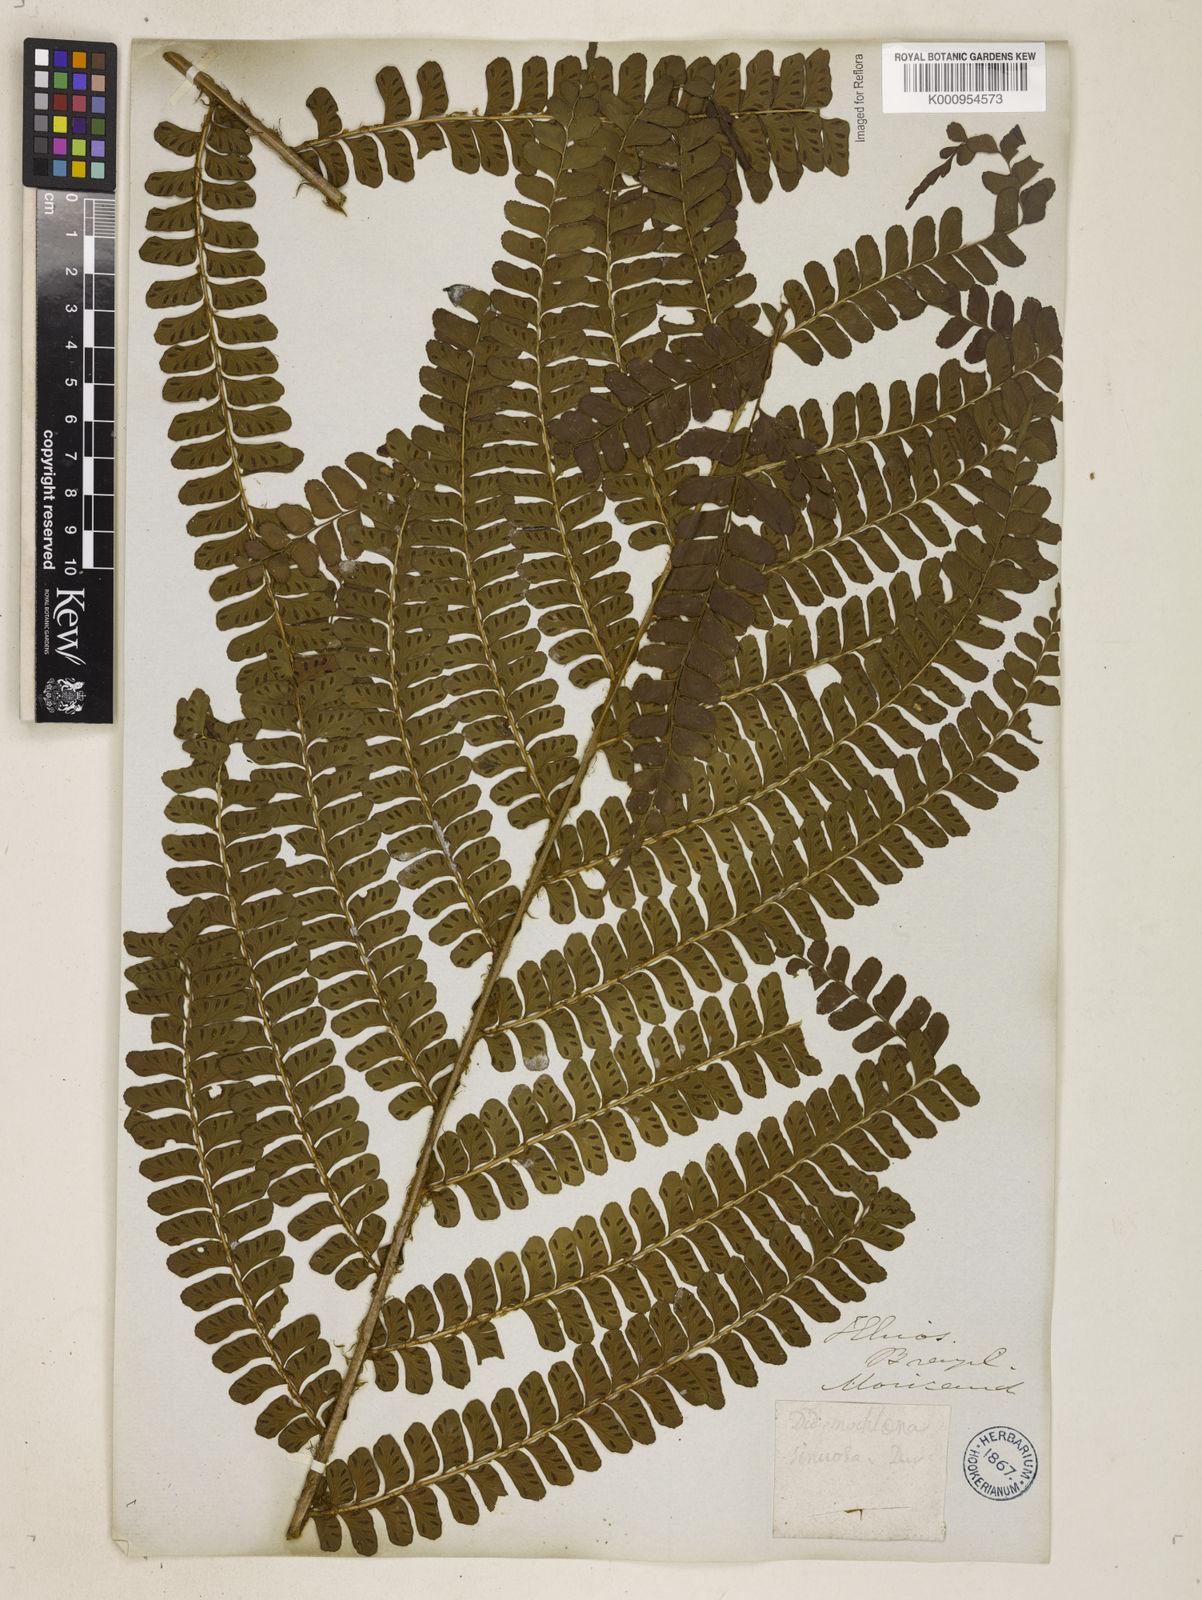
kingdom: Plantae
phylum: Tracheophyta
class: Polypodiopsida
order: Polypodiales
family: Didymochlaenaceae
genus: Didymochlaena
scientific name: Didymochlaena truncatula
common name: Mahogany fern
